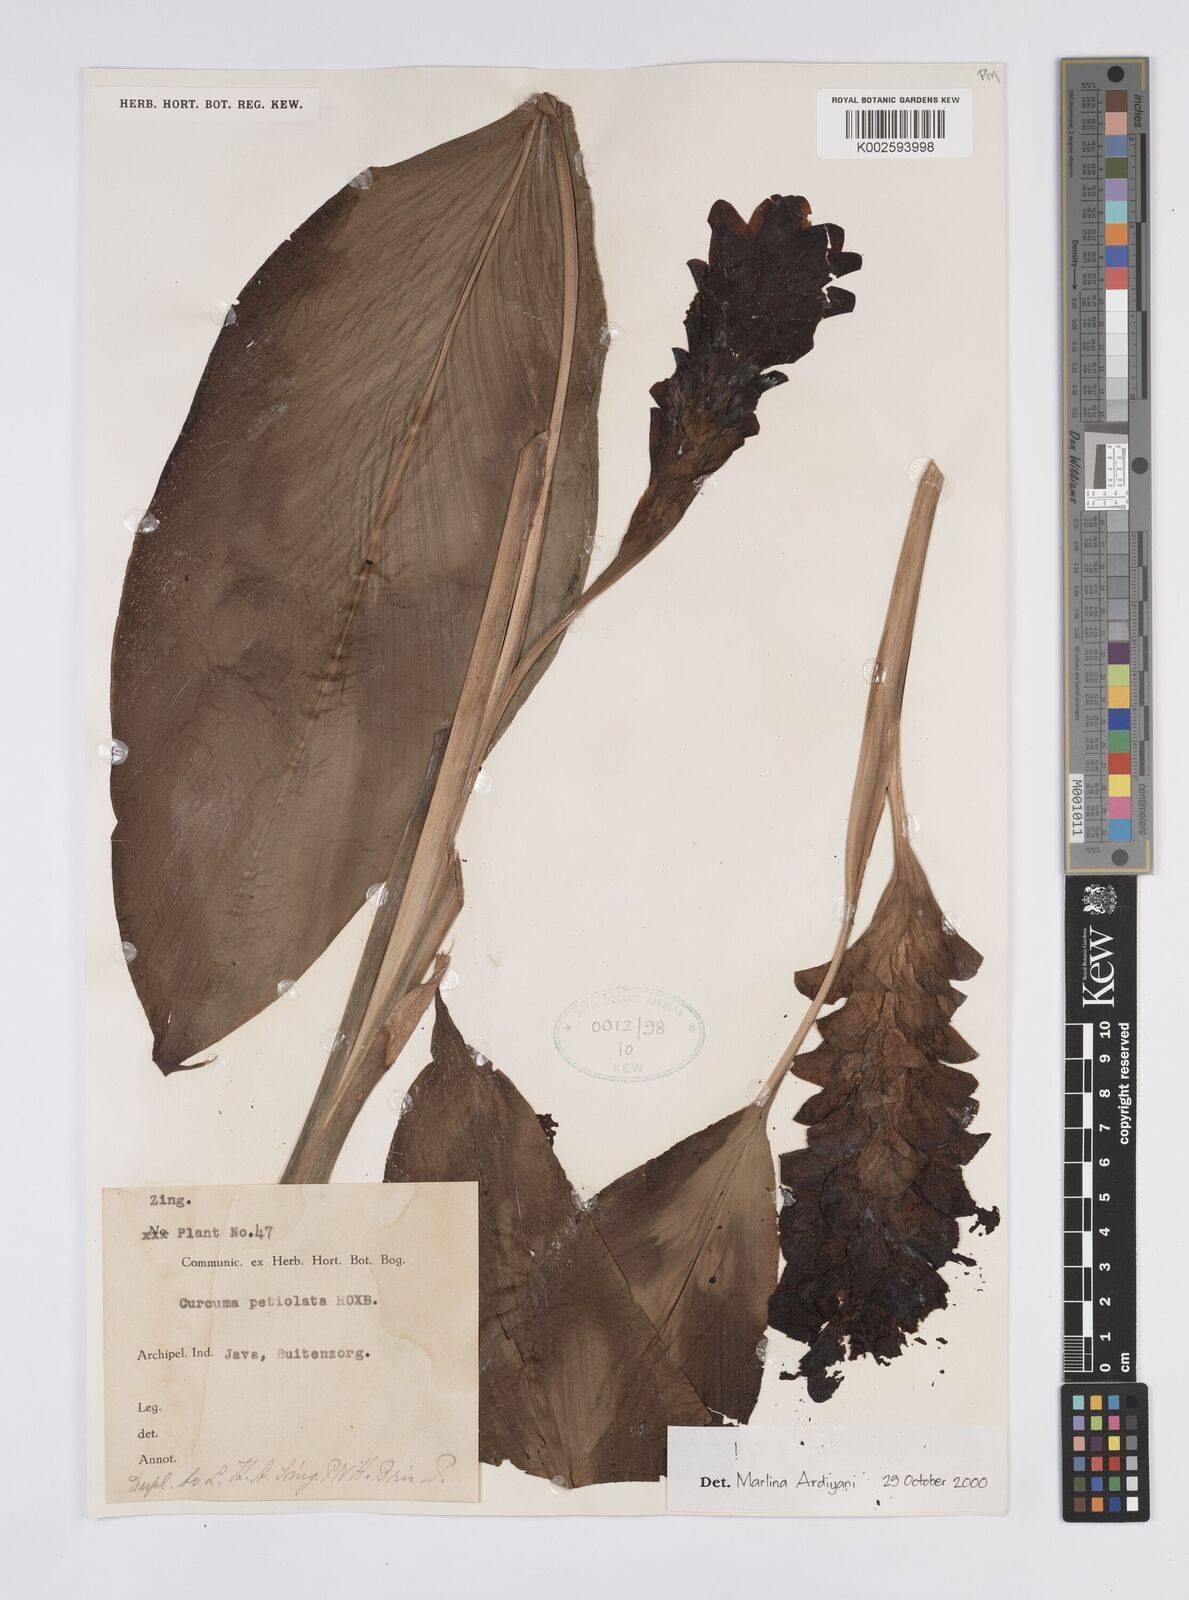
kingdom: Plantae
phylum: Tracheophyta
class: Liliopsida
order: Zingiberales
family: Zingiberaceae
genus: Curcuma
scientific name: Curcuma petiolata
